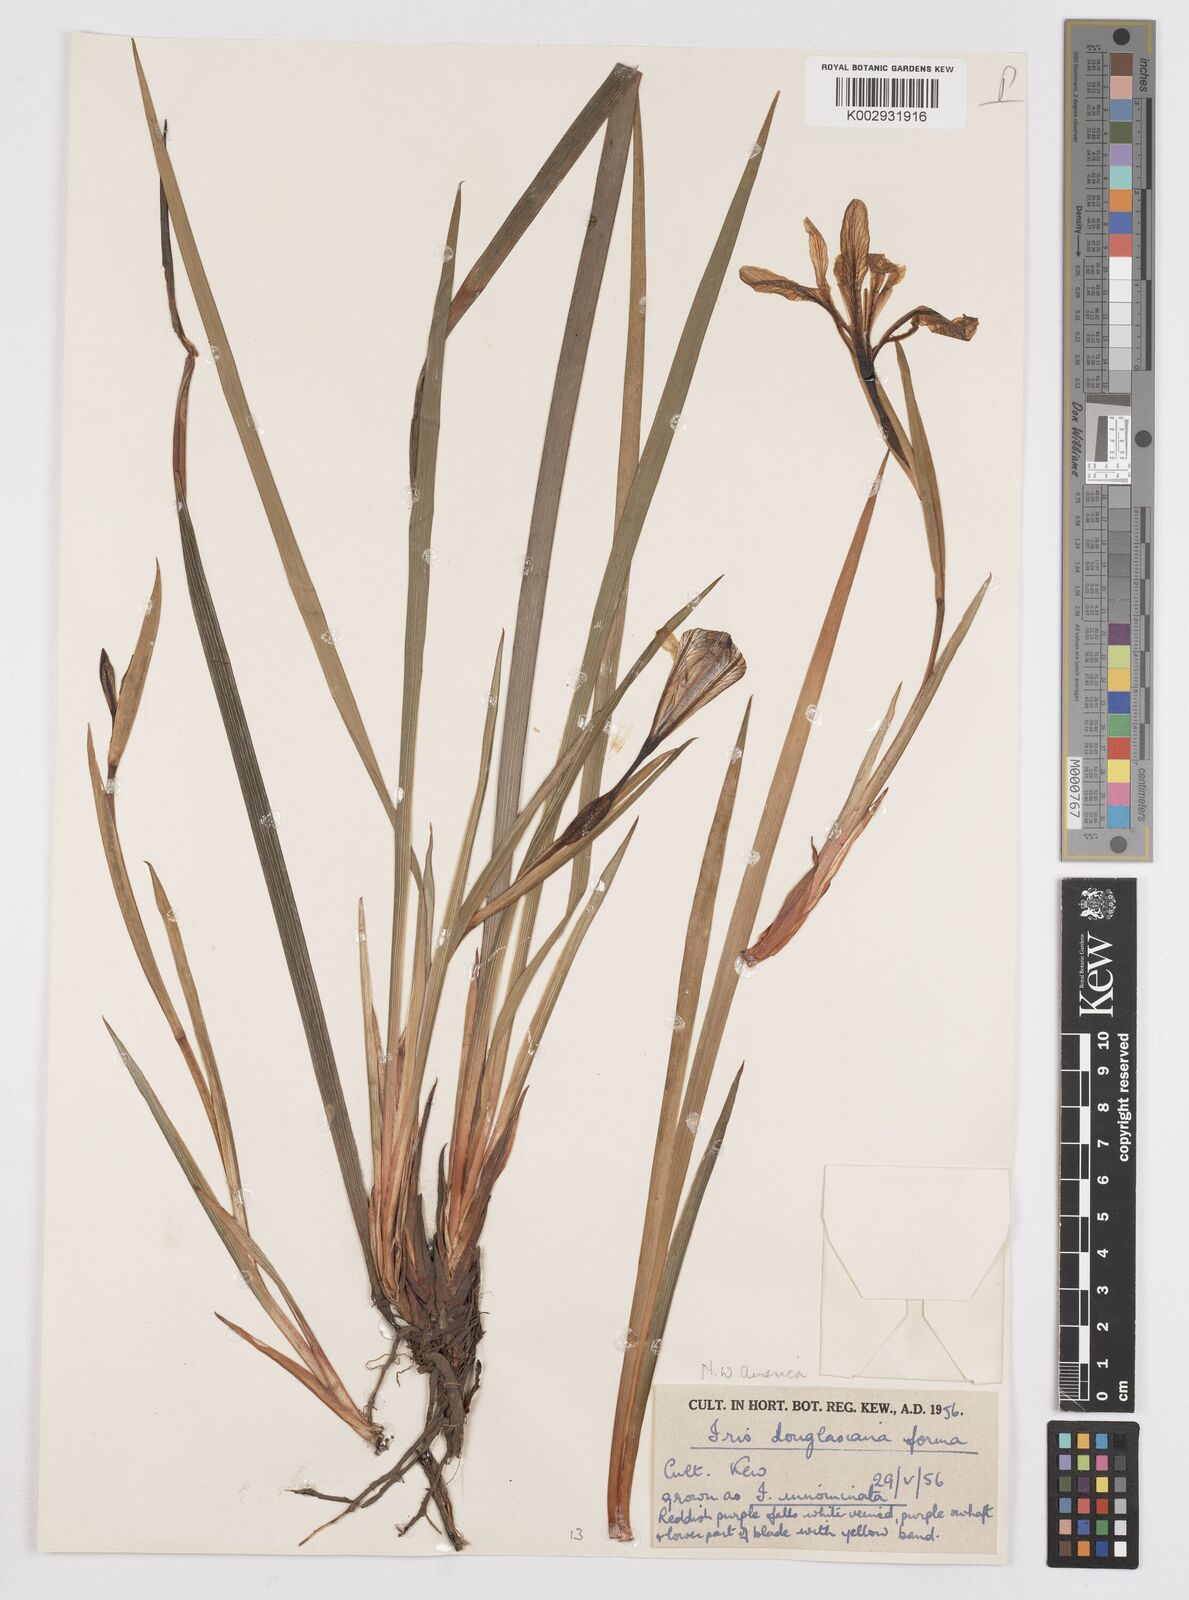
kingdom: Plantae
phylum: Tracheophyta
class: Liliopsida
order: Asparagales
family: Iridaceae
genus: Iris
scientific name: Iris douglasiana
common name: Marin iris
